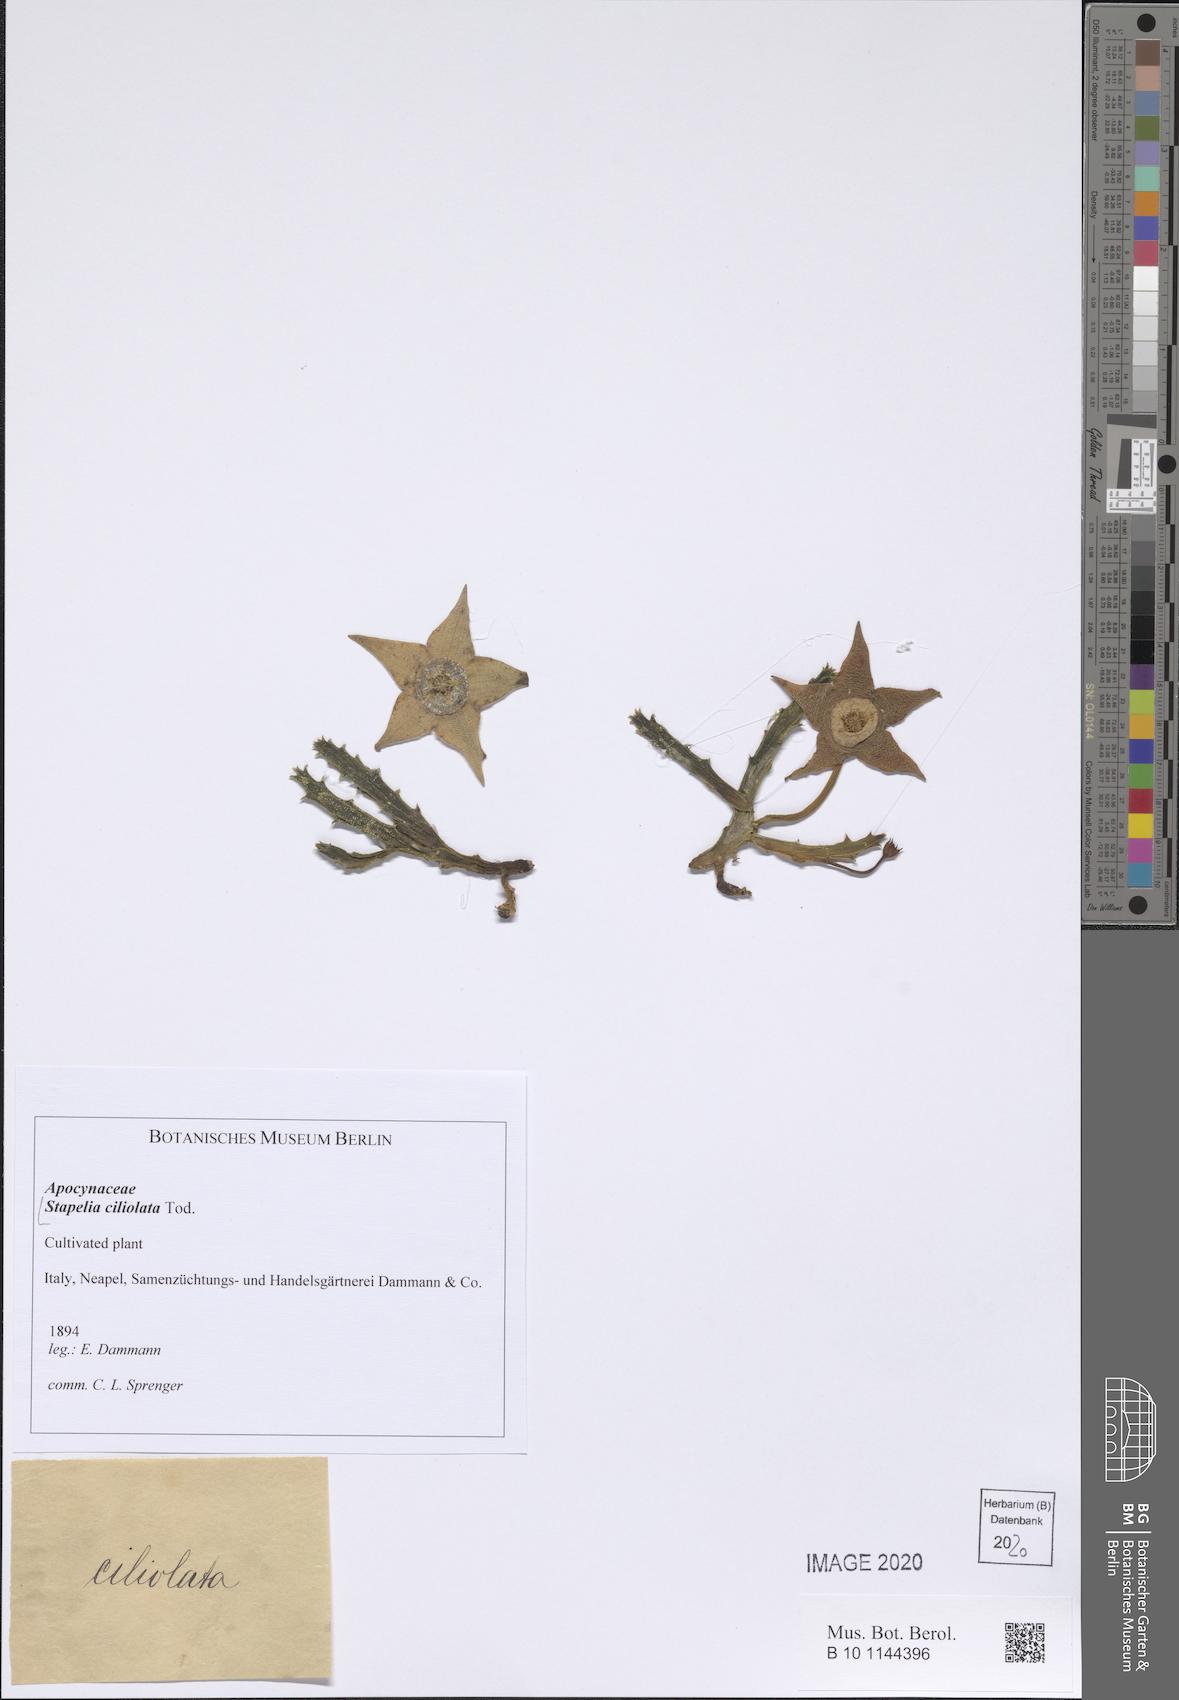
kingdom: Plantae
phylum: Tracheophyta
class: Magnoliopsida
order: Gentianales
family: Apocynaceae
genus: Ceropegia
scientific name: Ceropegia mixta
